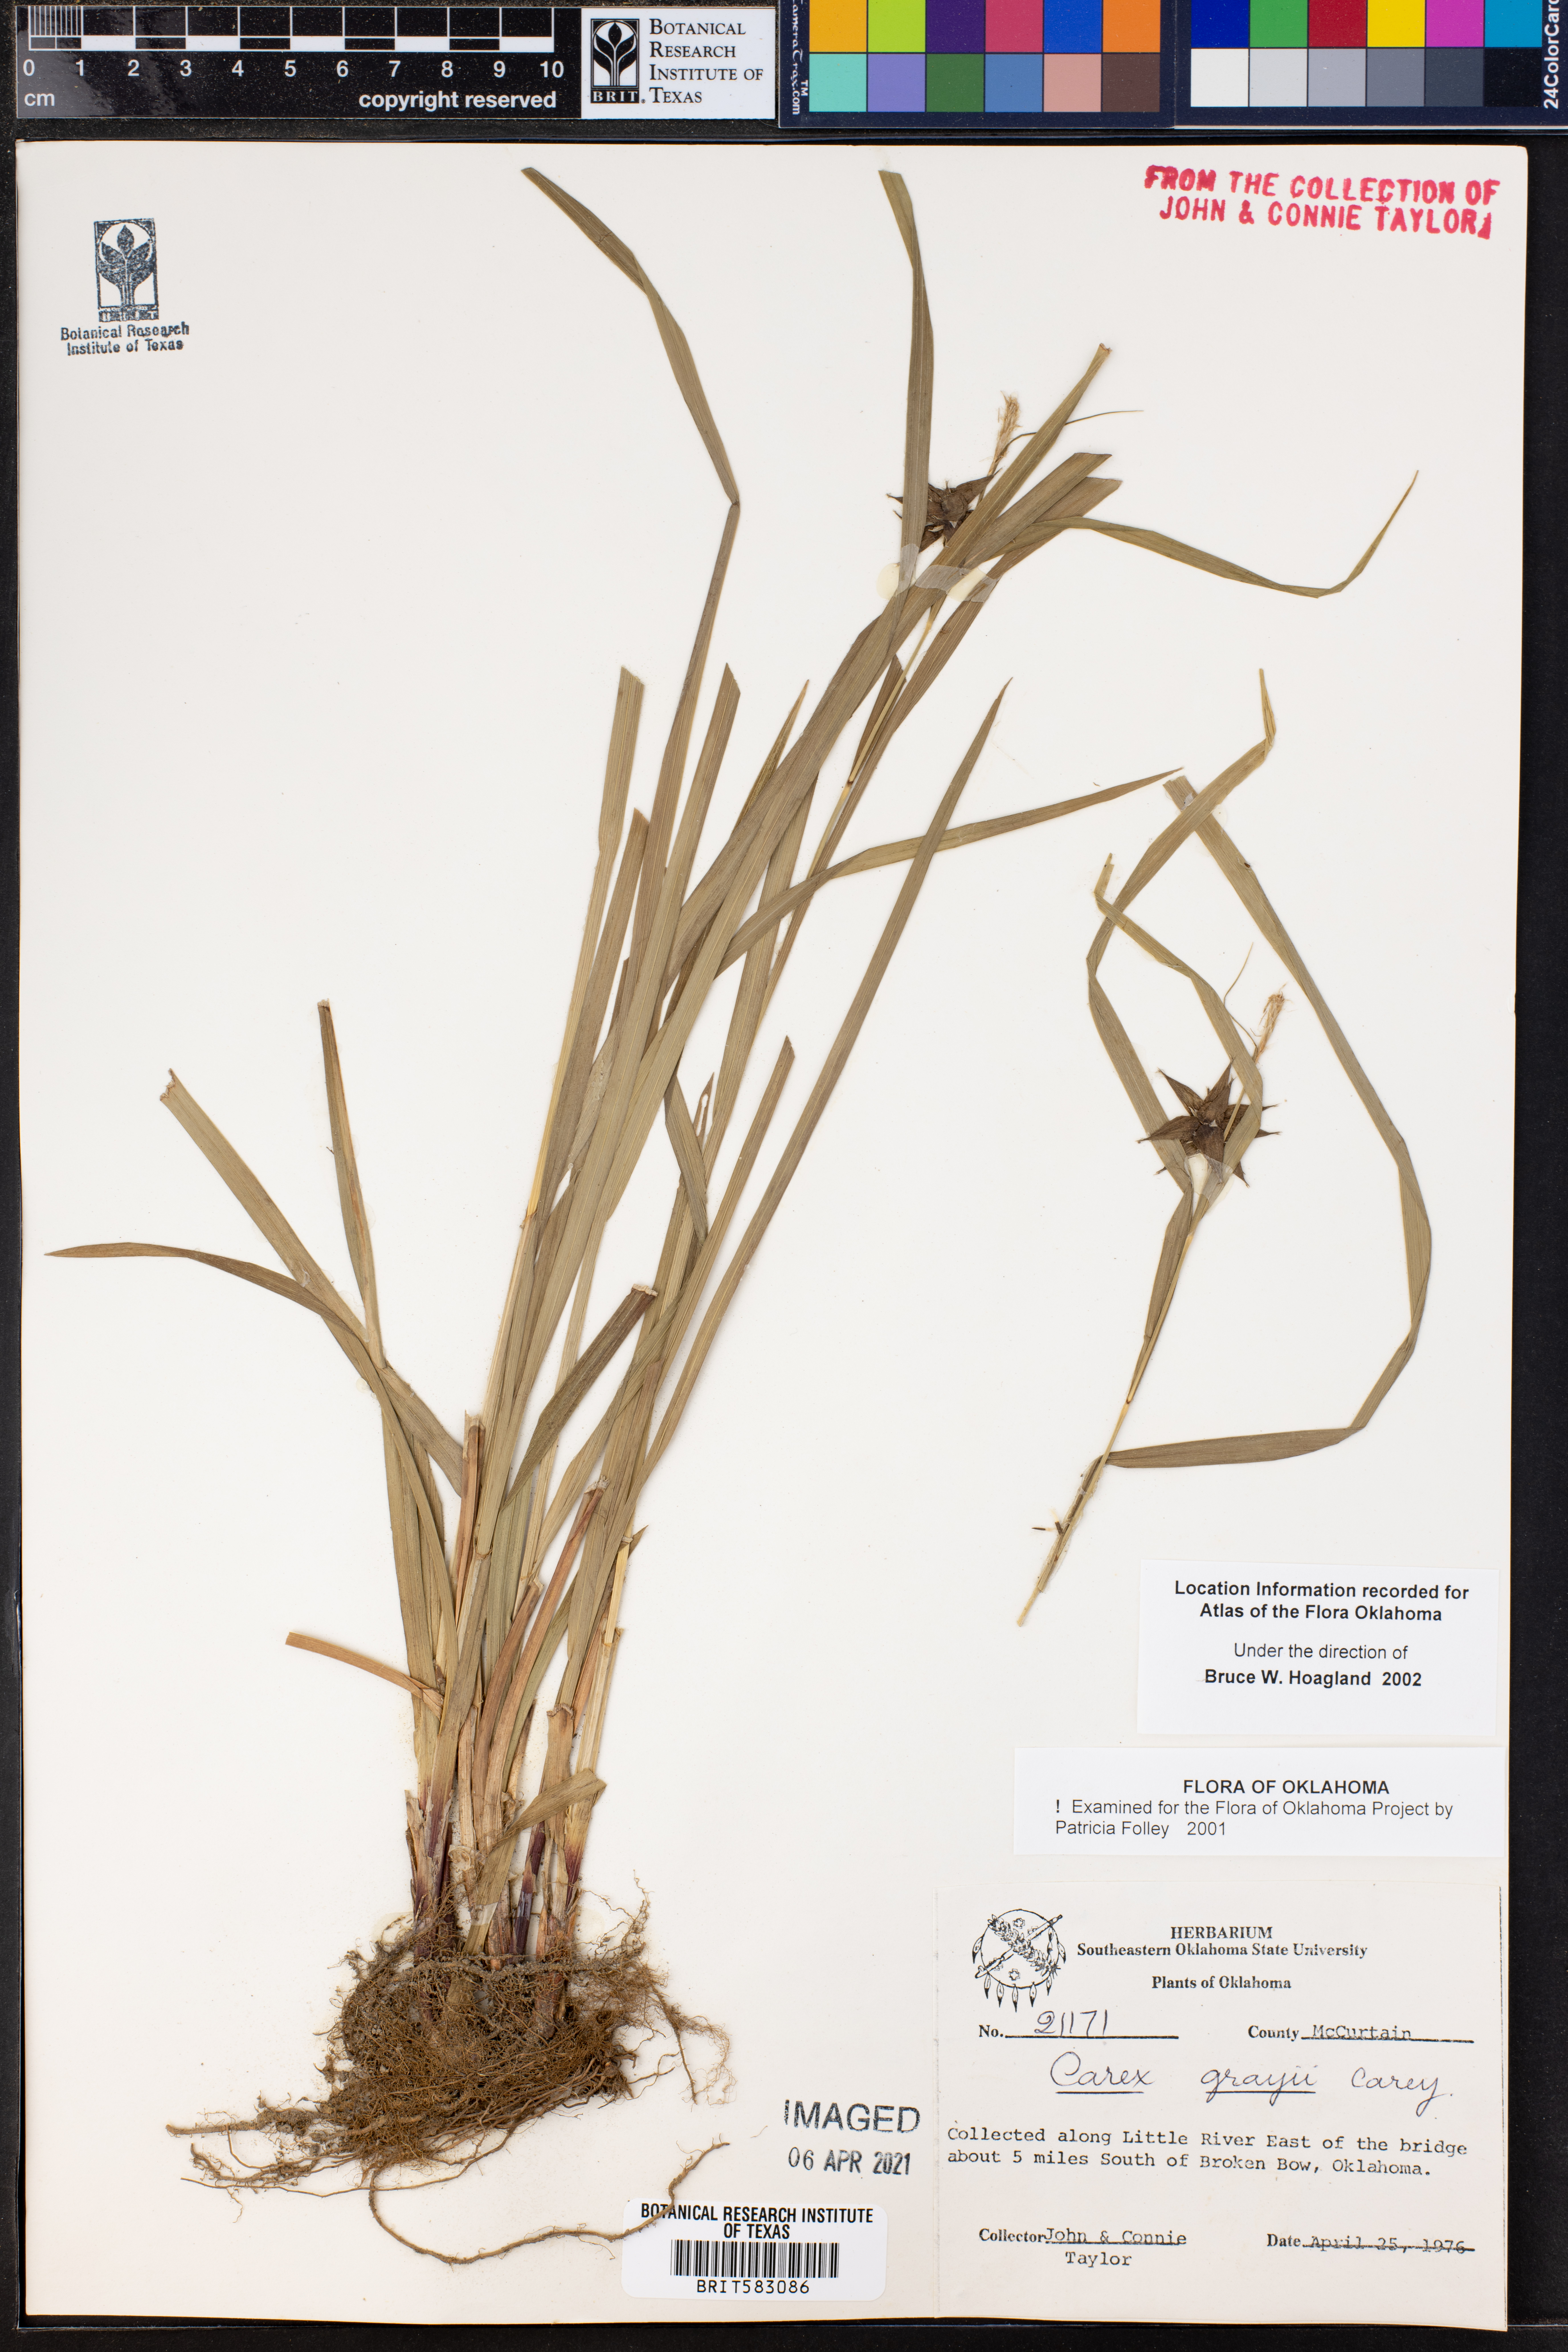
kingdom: Plantae
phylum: Tracheophyta
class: Liliopsida
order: Poales
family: Cyperaceae
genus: Carex
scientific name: Carex grayi
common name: Asa gray's sedge
